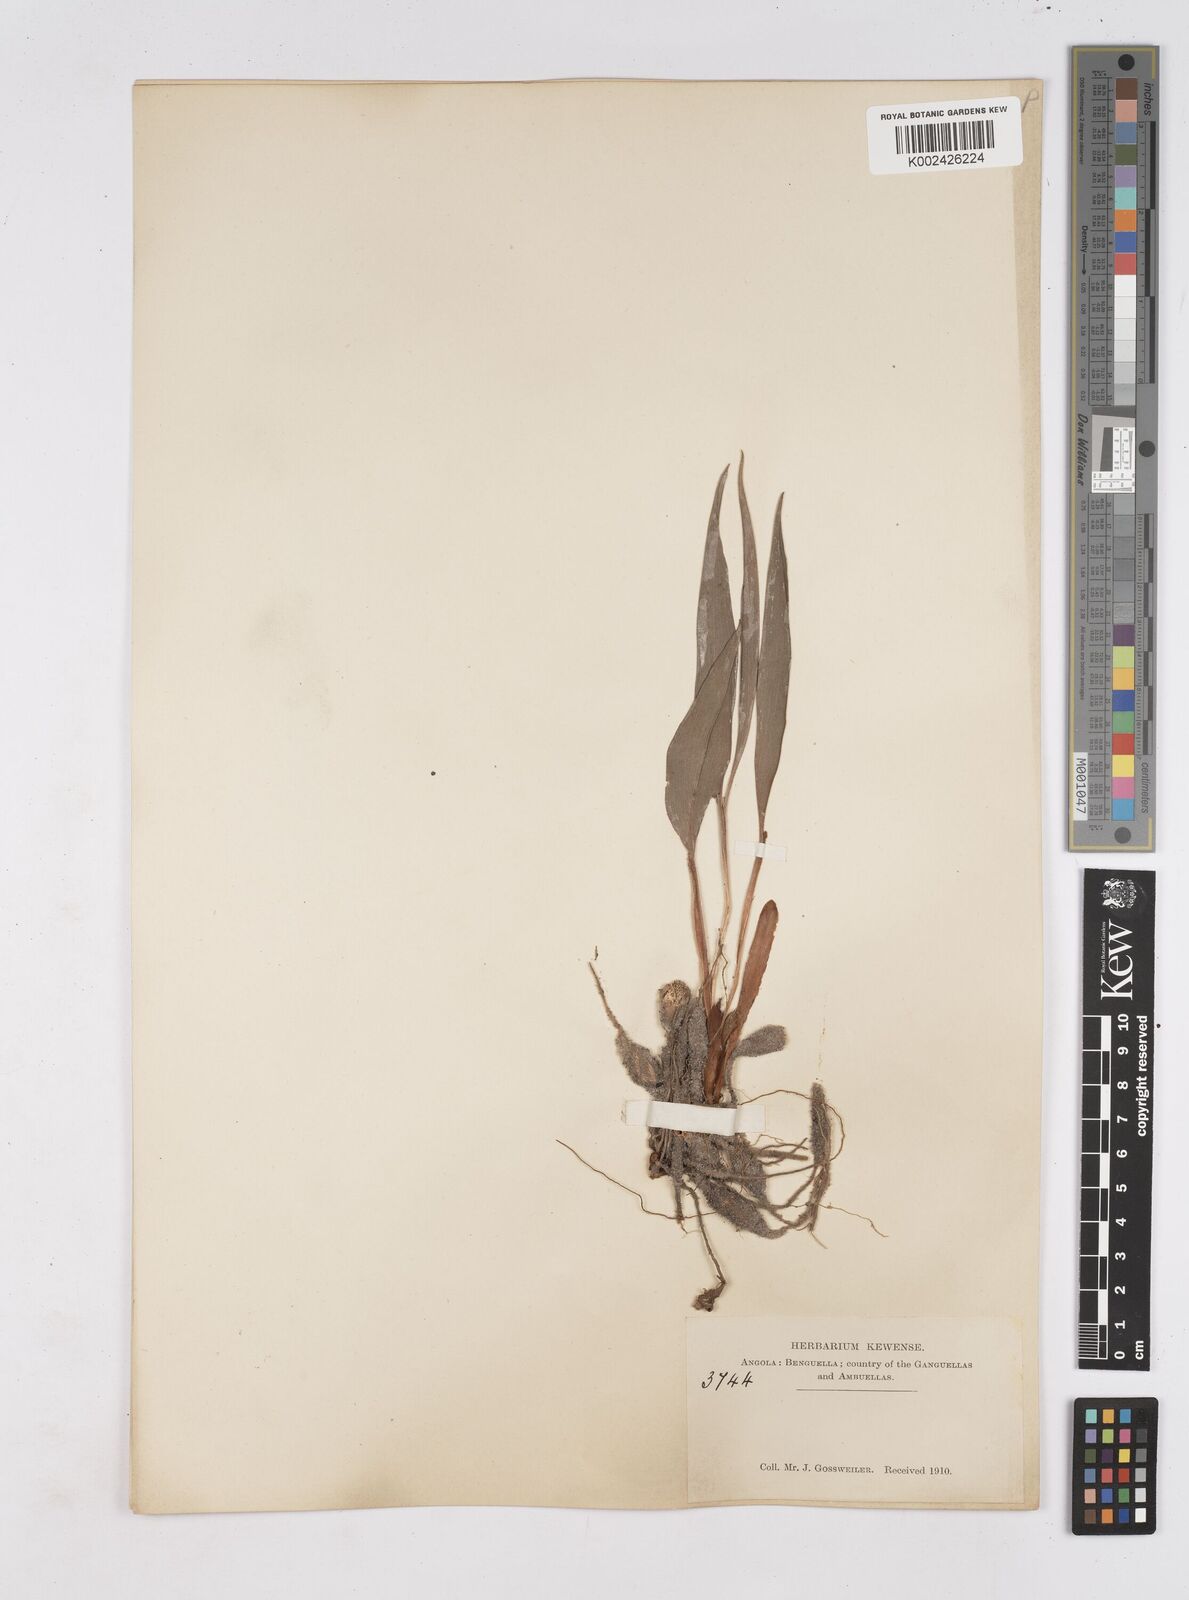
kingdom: Plantae
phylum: Tracheophyta
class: Liliopsida
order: Zingiberales
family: Zingiberaceae
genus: Siphonochilus
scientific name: Siphonochilus
